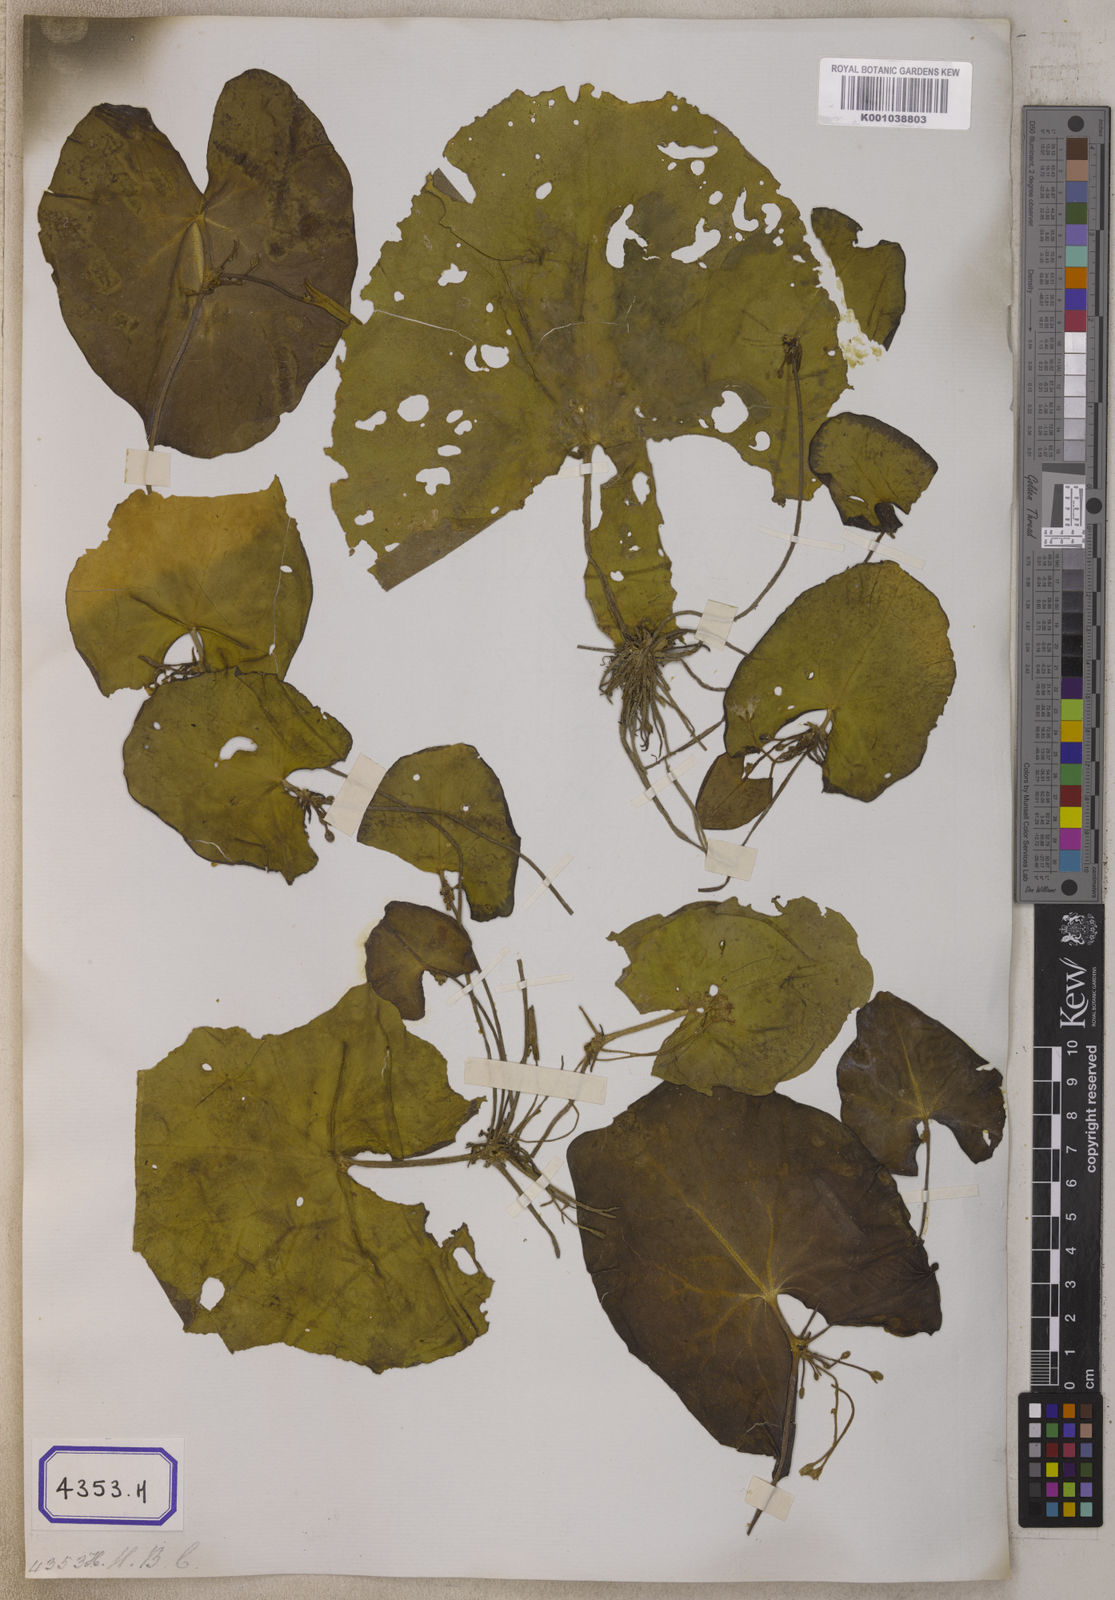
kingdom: Plantae
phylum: Tracheophyta
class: Magnoliopsida
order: Asterales
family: Menyanthaceae
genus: Nymphoides
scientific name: Nymphoides hydrophylla
